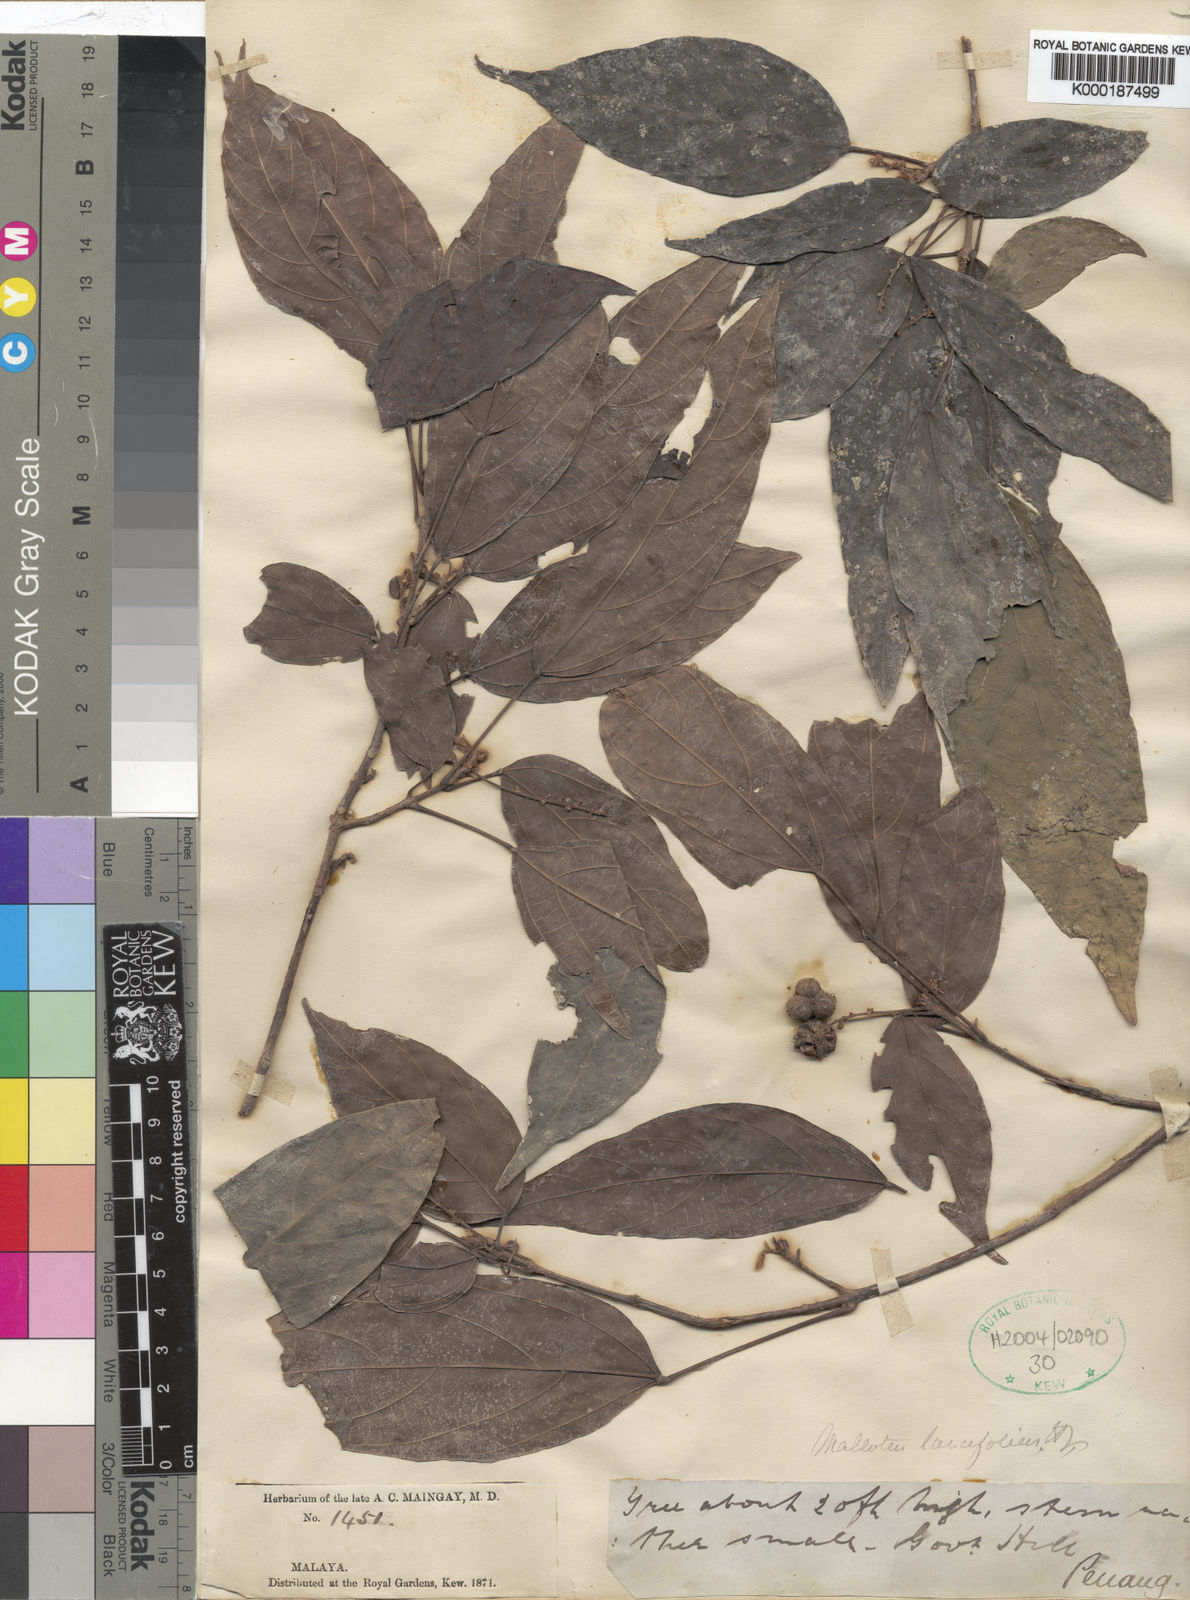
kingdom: Plantae
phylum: Tracheophyta
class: Magnoliopsida
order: Malpighiales
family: Euphorbiaceae
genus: Mallotus
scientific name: Mallotus lancifolius
